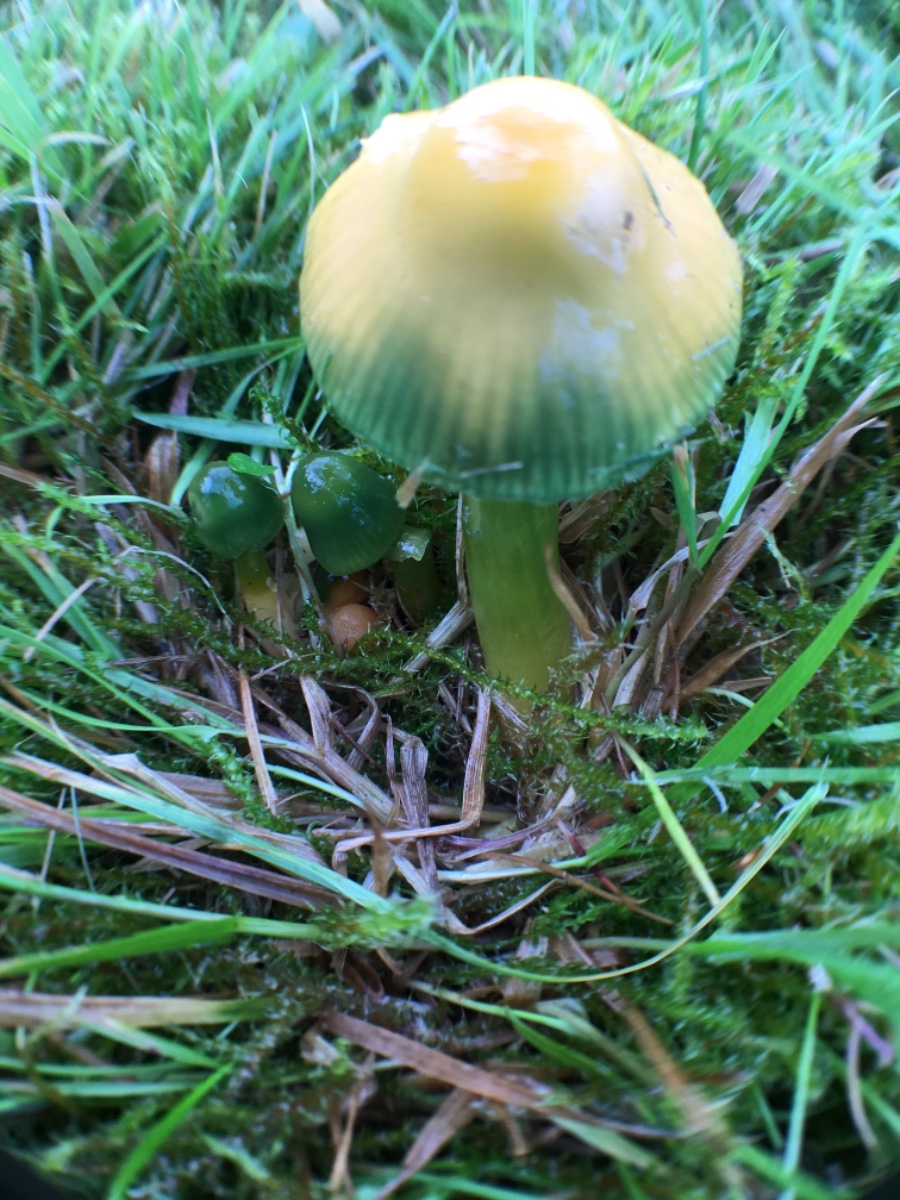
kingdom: Fungi
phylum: Basidiomycota
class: Agaricomycetes
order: Agaricales
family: Hygrophoraceae
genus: Gliophorus
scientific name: Gliophorus psittacinus
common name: papegøje-vokshat
